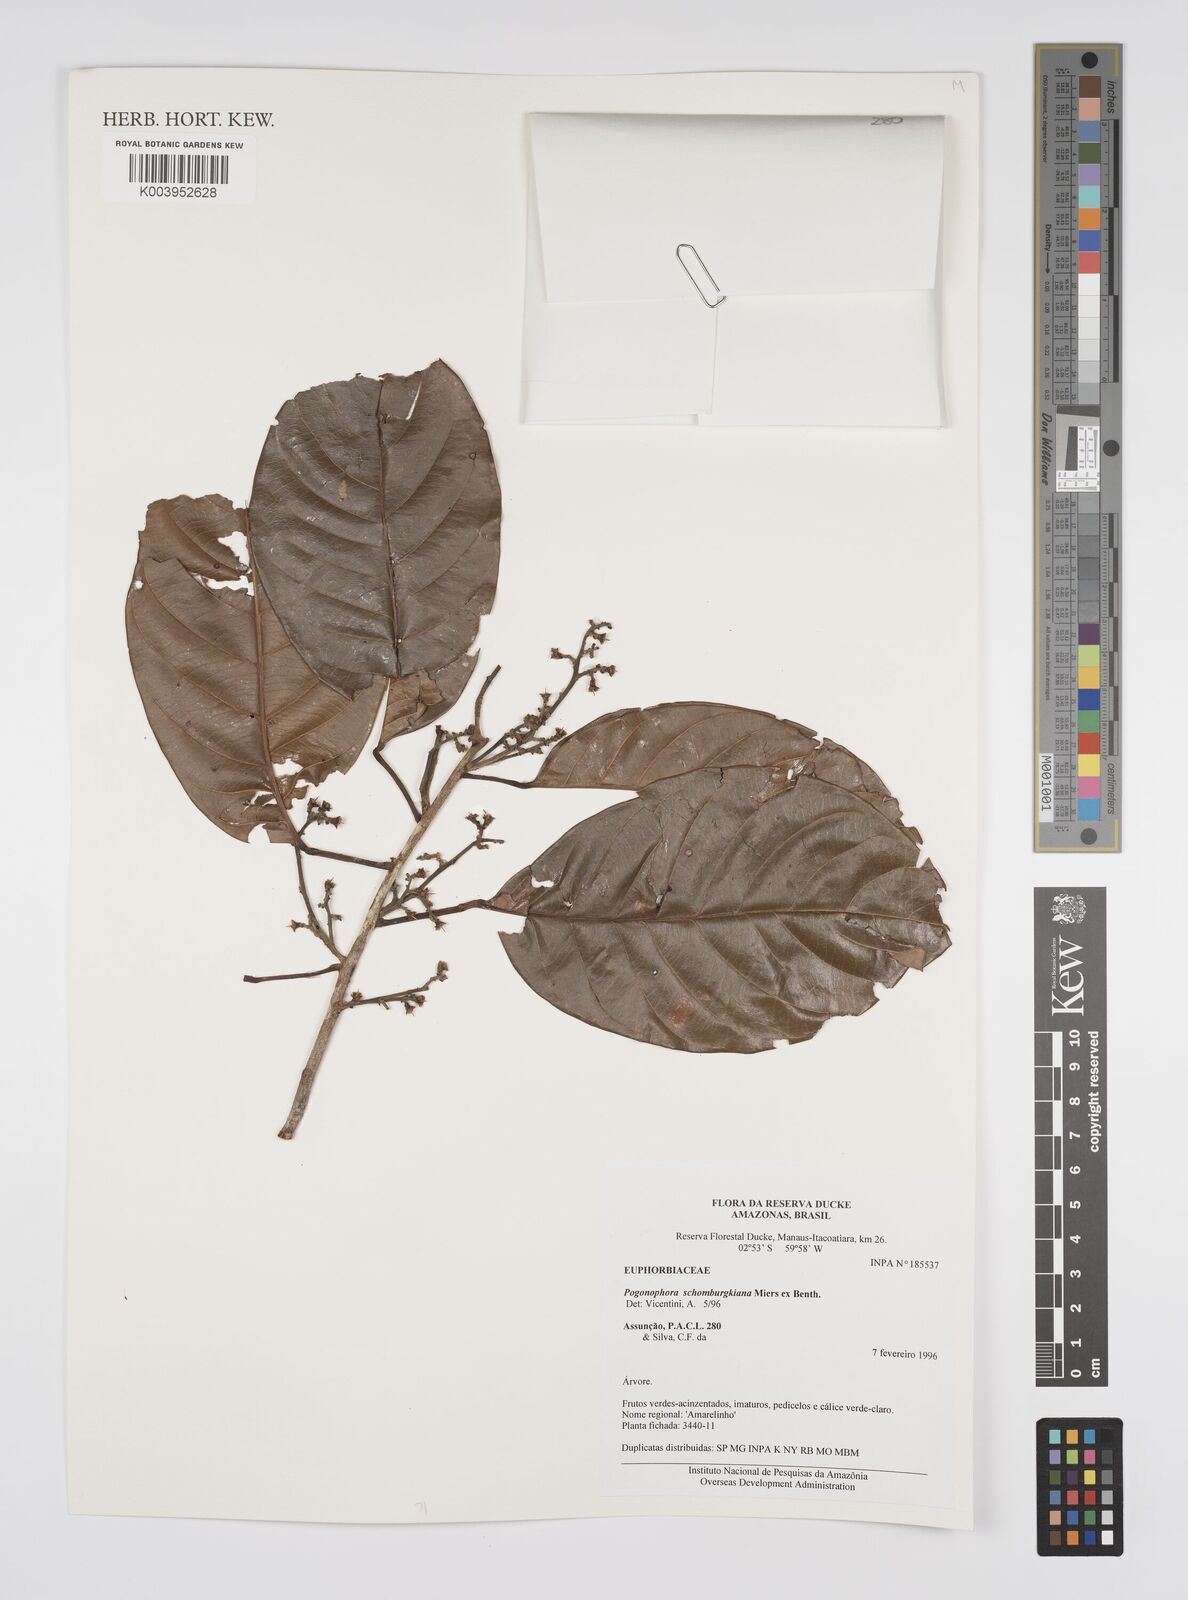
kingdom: Plantae
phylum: Tracheophyta
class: Magnoliopsida
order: Malpighiales
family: Peraceae
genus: Pogonophora
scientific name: Pogonophora schomburgkiana
